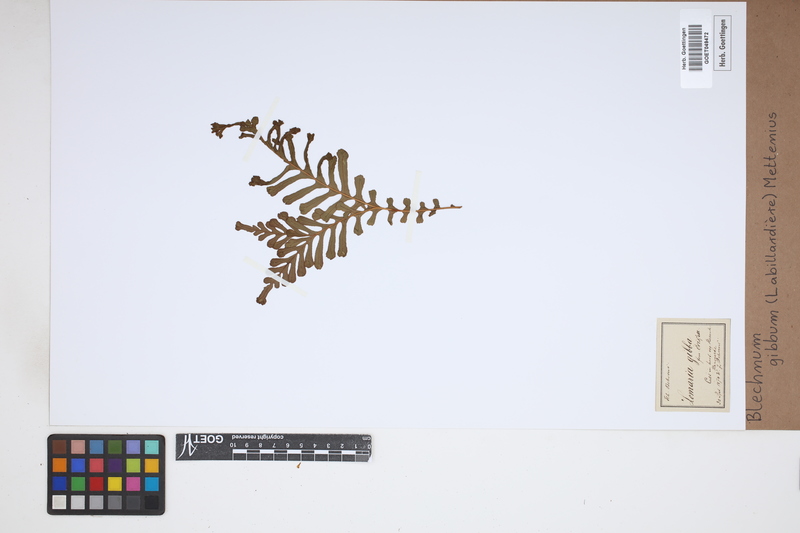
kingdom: Plantae
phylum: Tracheophyta
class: Polypodiopsida
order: Polypodiales
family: Blechnaceae
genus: Oceaniopteris
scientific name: Oceaniopteris gibba
